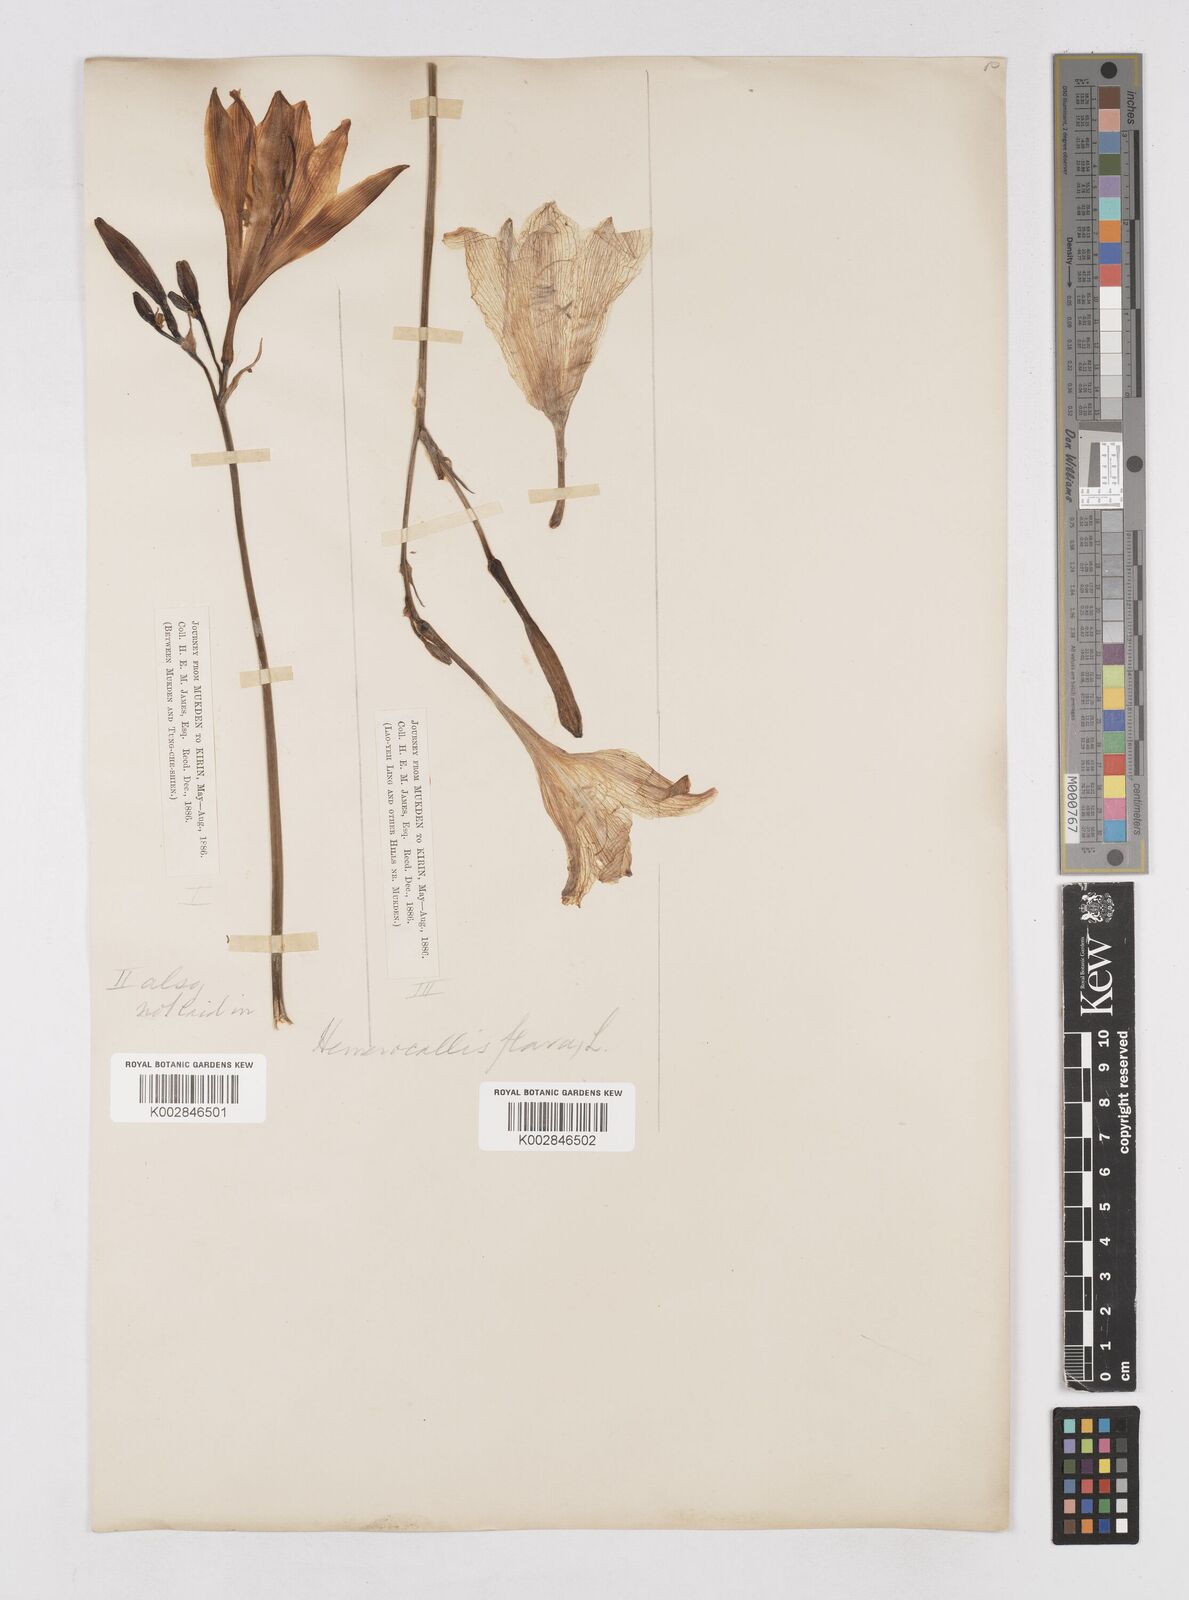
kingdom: Plantae
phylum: Tracheophyta
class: Liliopsida
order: Asparagales
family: Asphodelaceae
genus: Hemerocallis
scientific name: Hemerocallis lilioasphodelus
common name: Yellow day-lily
